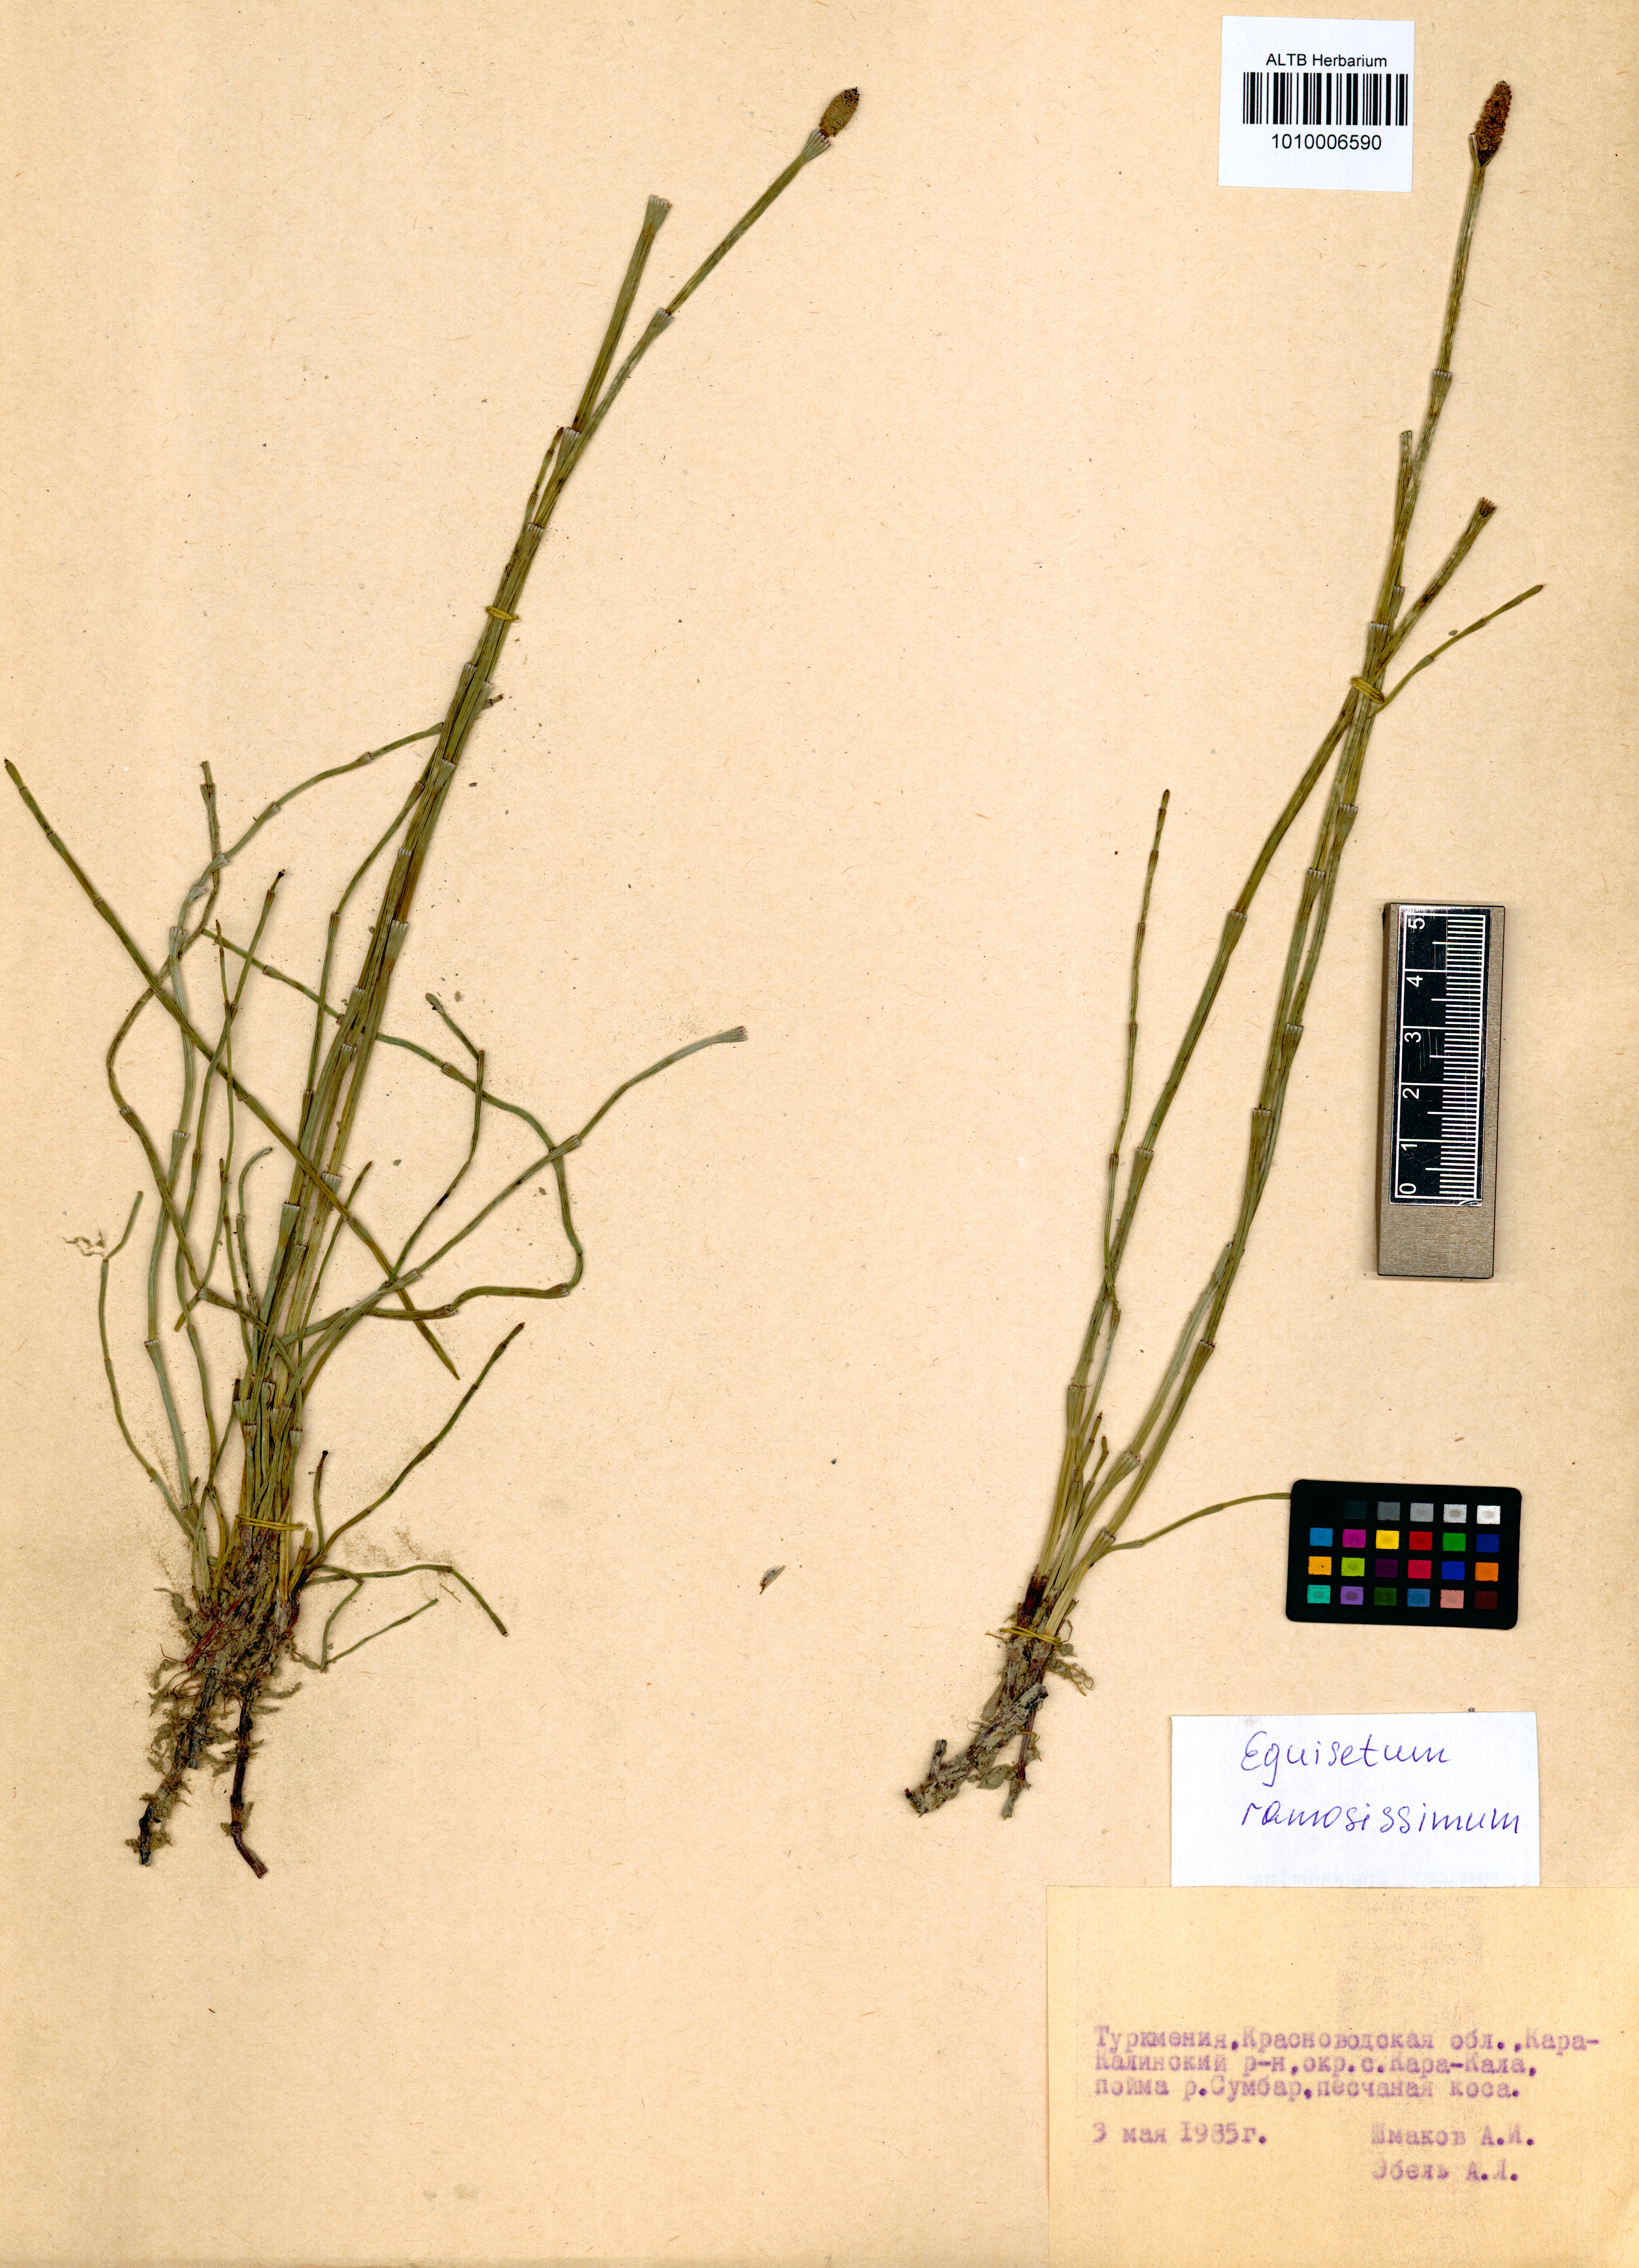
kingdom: Plantae
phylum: Tracheophyta
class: Polypodiopsida
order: Equisetales
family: Equisetaceae
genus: Equisetum
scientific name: Equisetum ramosissimum
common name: Branched horsetail
